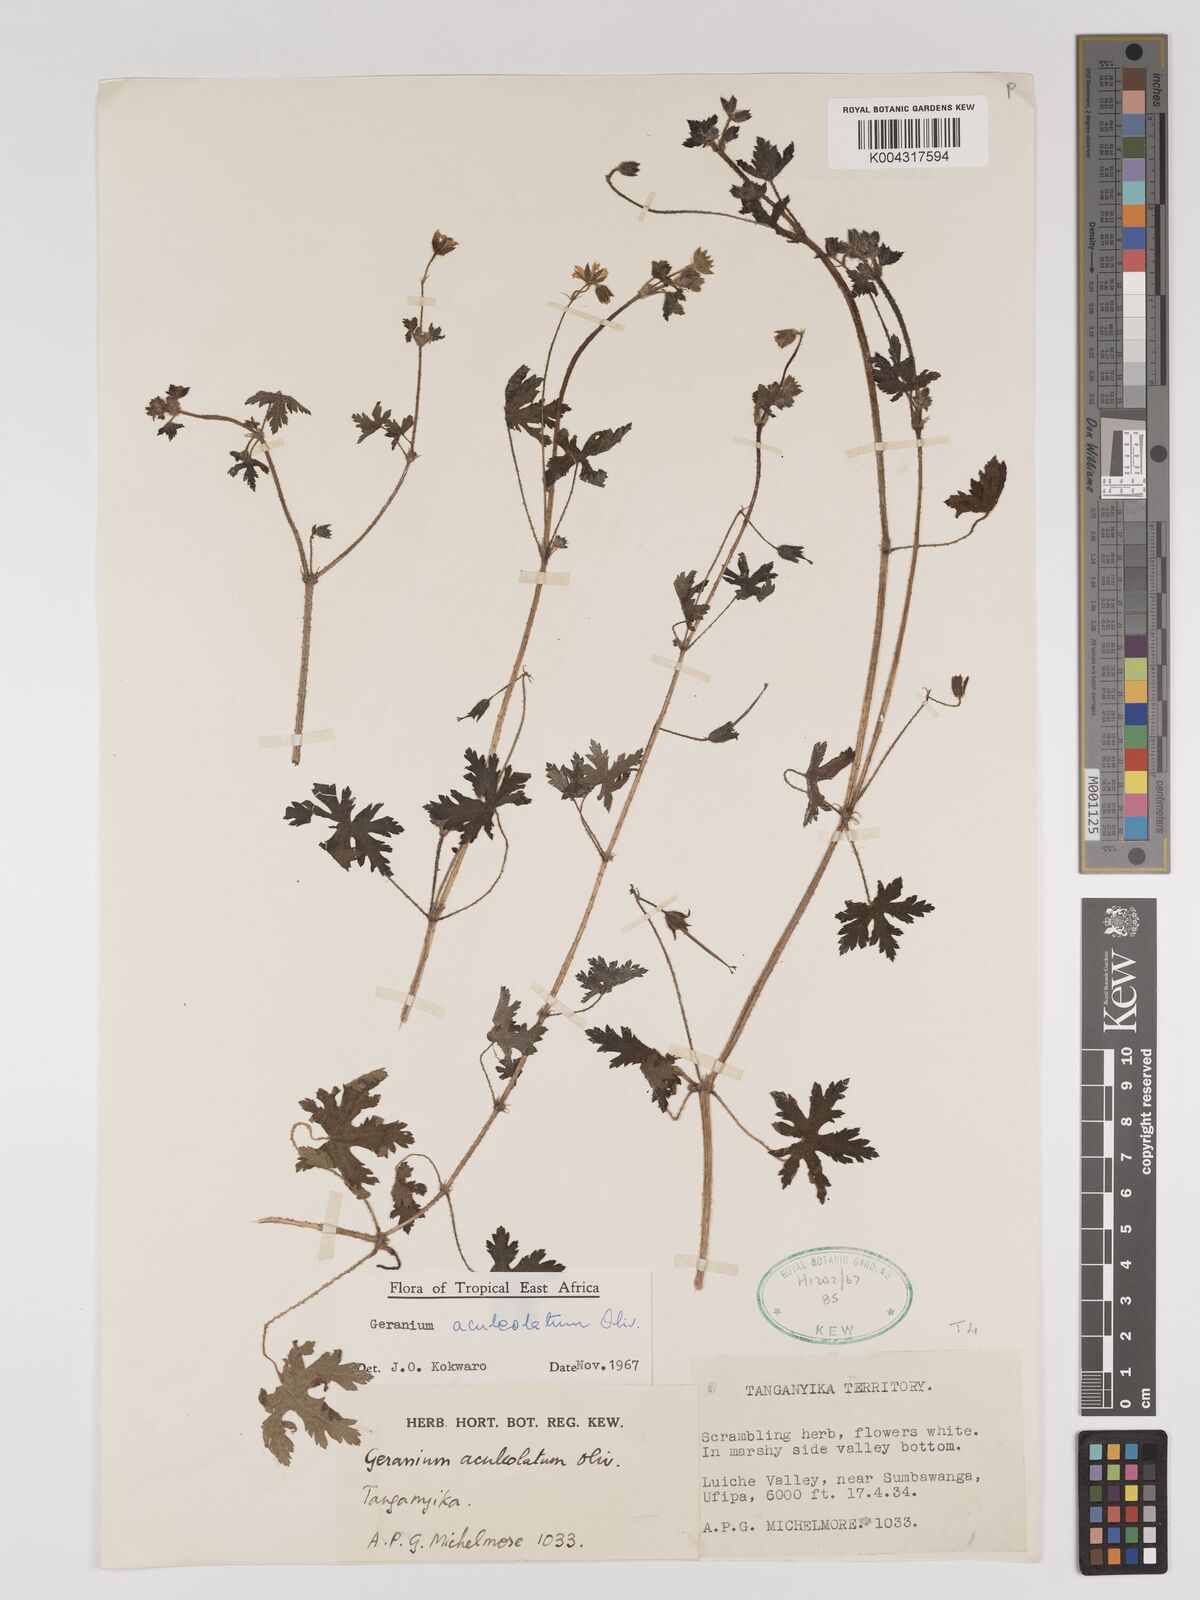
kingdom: Plantae
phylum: Tracheophyta
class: Magnoliopsida
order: Geraniales
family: Geraniaceae
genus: Geranium
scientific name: Geranium aculeolatum
